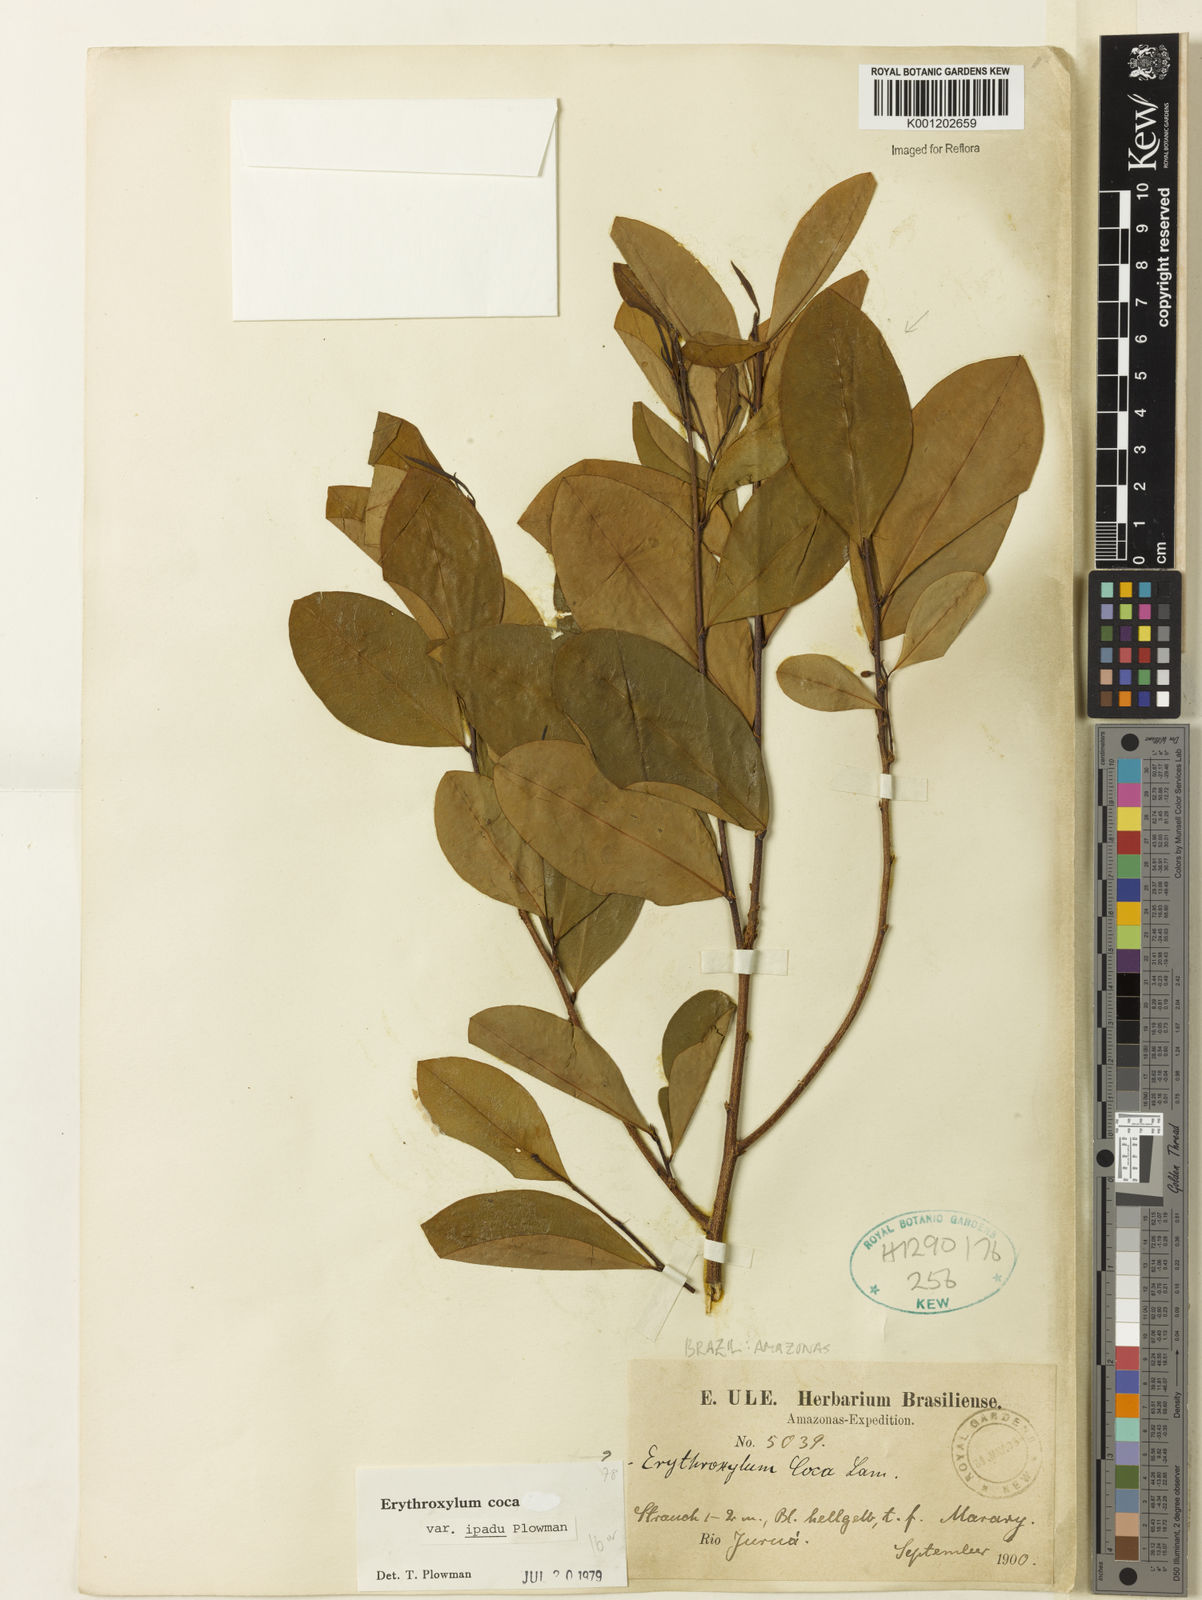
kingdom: Plantae
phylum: Tracheophyta
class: Magnoliopsida
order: Malpighiales
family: Erythroxylaceae
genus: Erythroxylum
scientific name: Erythroxylum coca
